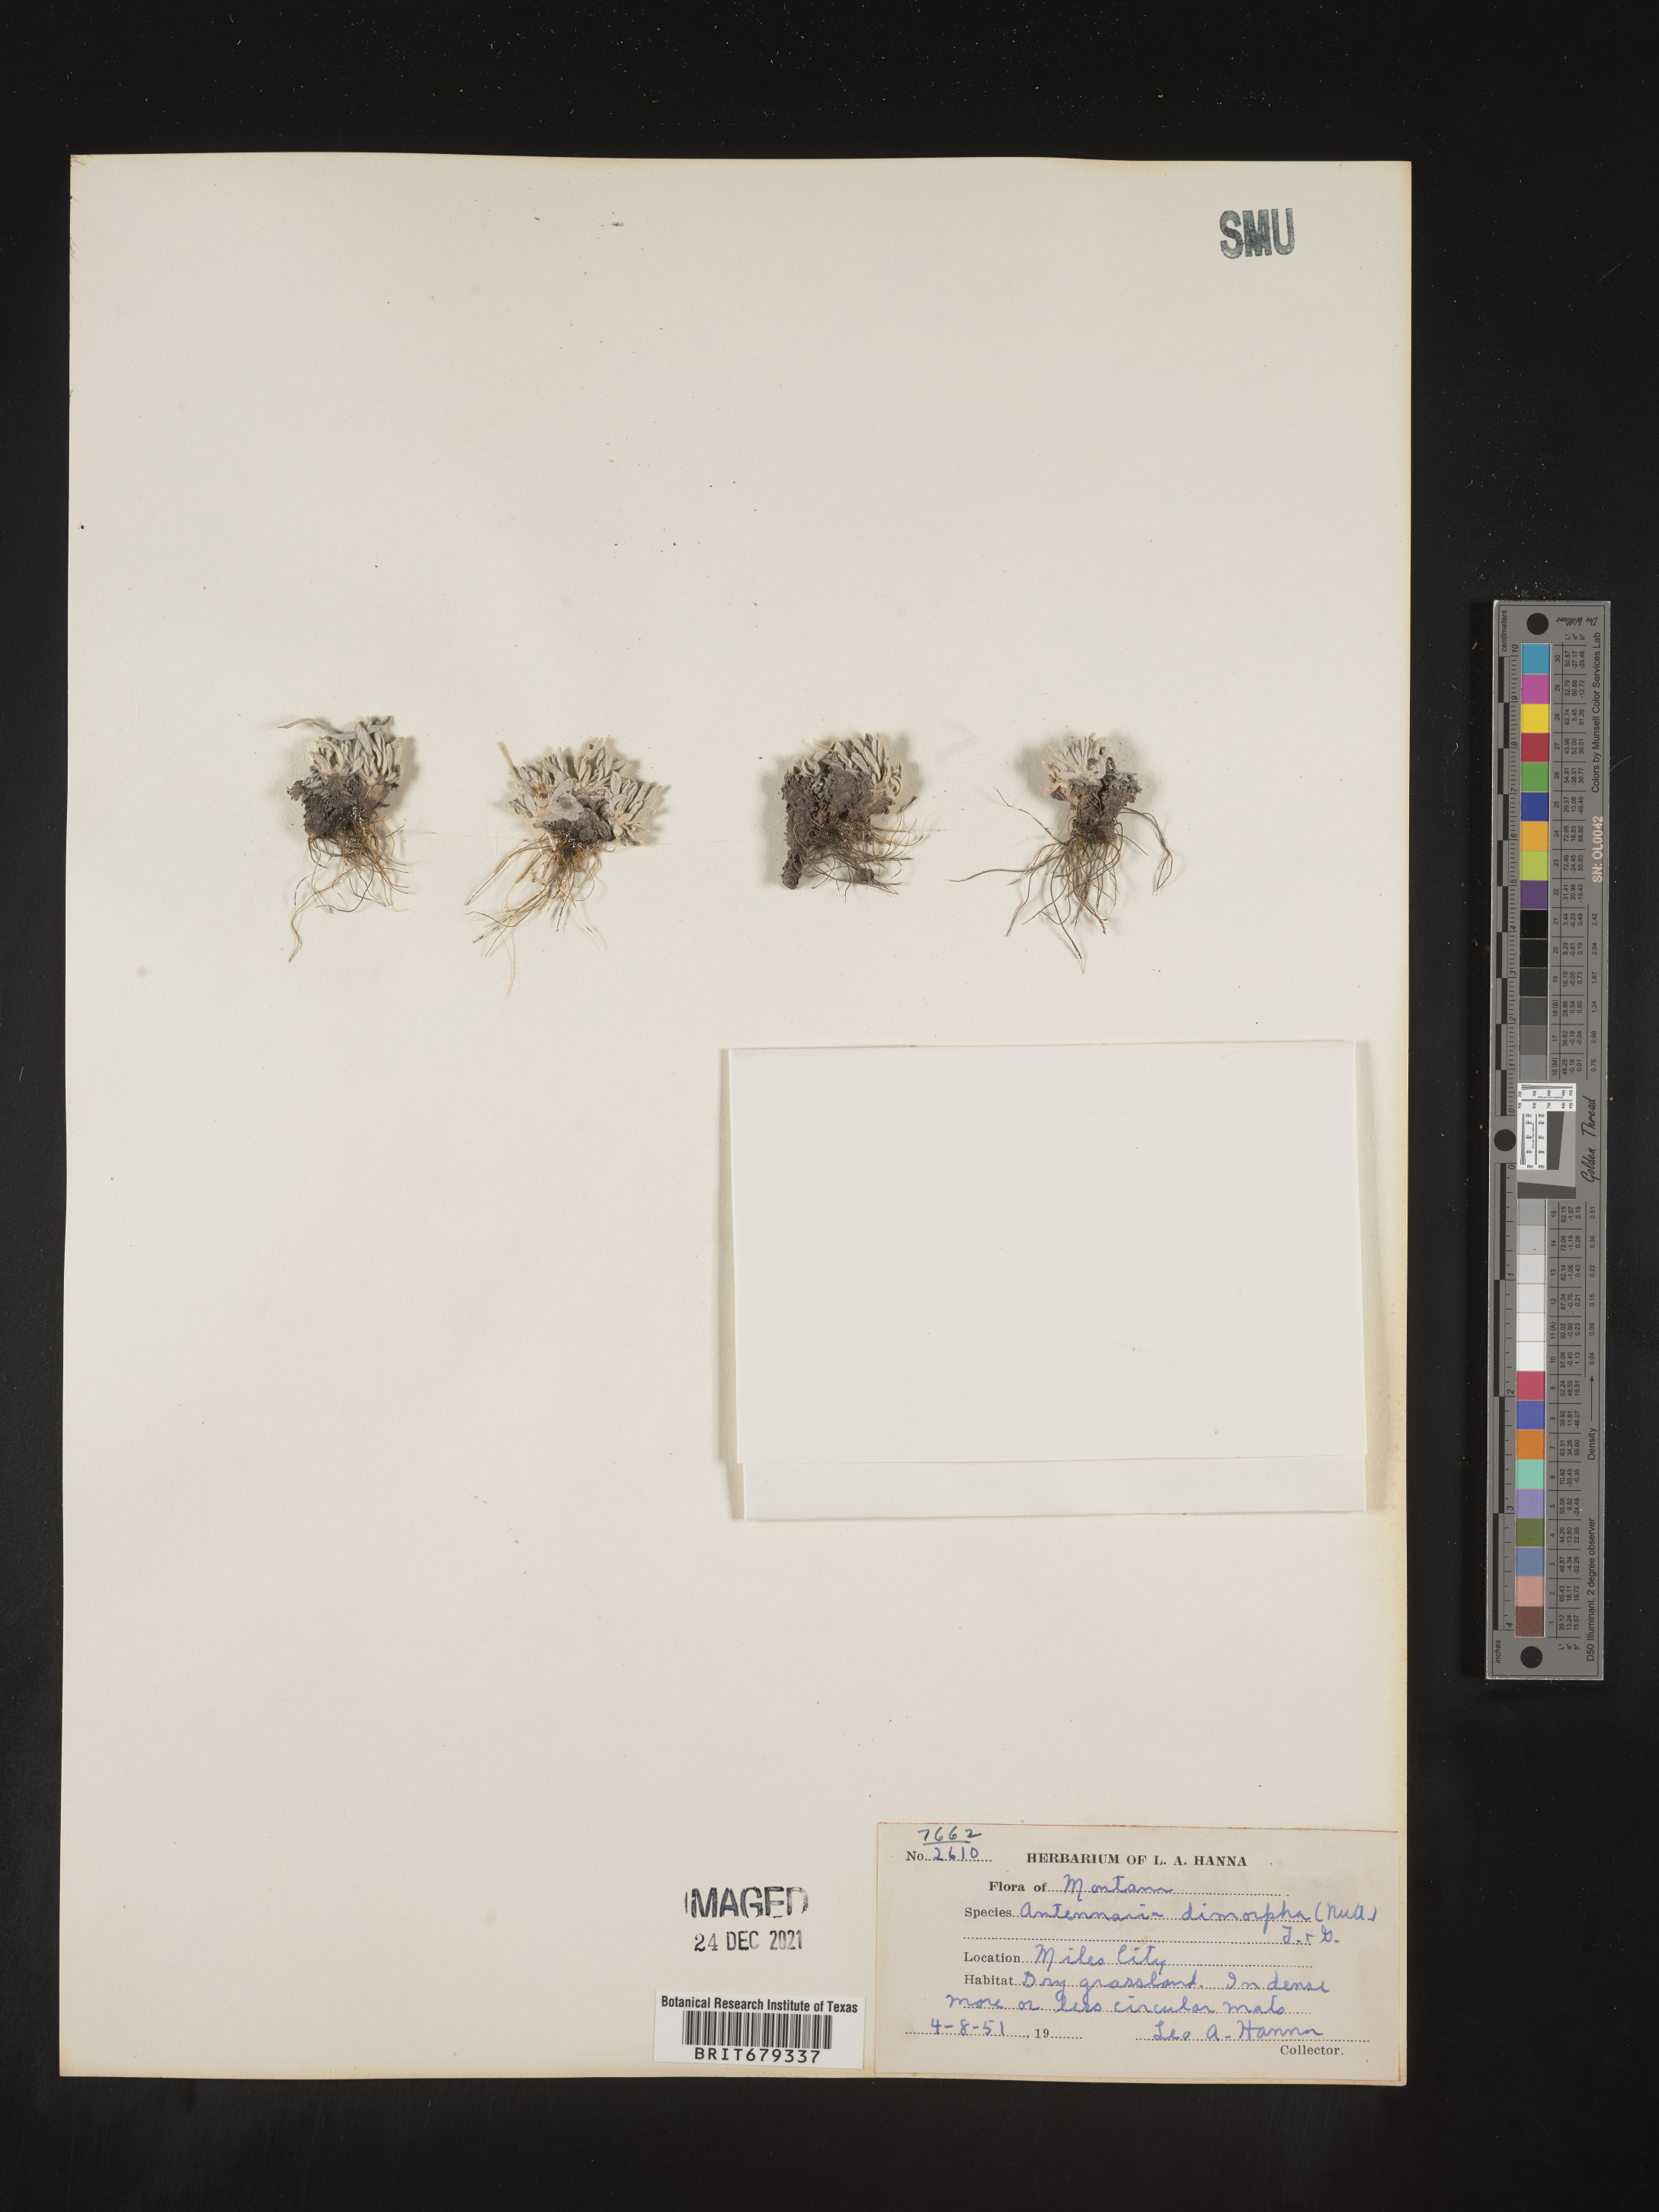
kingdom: Plantae
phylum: Tracheophyta
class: Magnoliopsida
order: Asterales
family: Asteraceae
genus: Antennaria
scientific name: Antennaria dimorpha
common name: Cushion pussytoes
